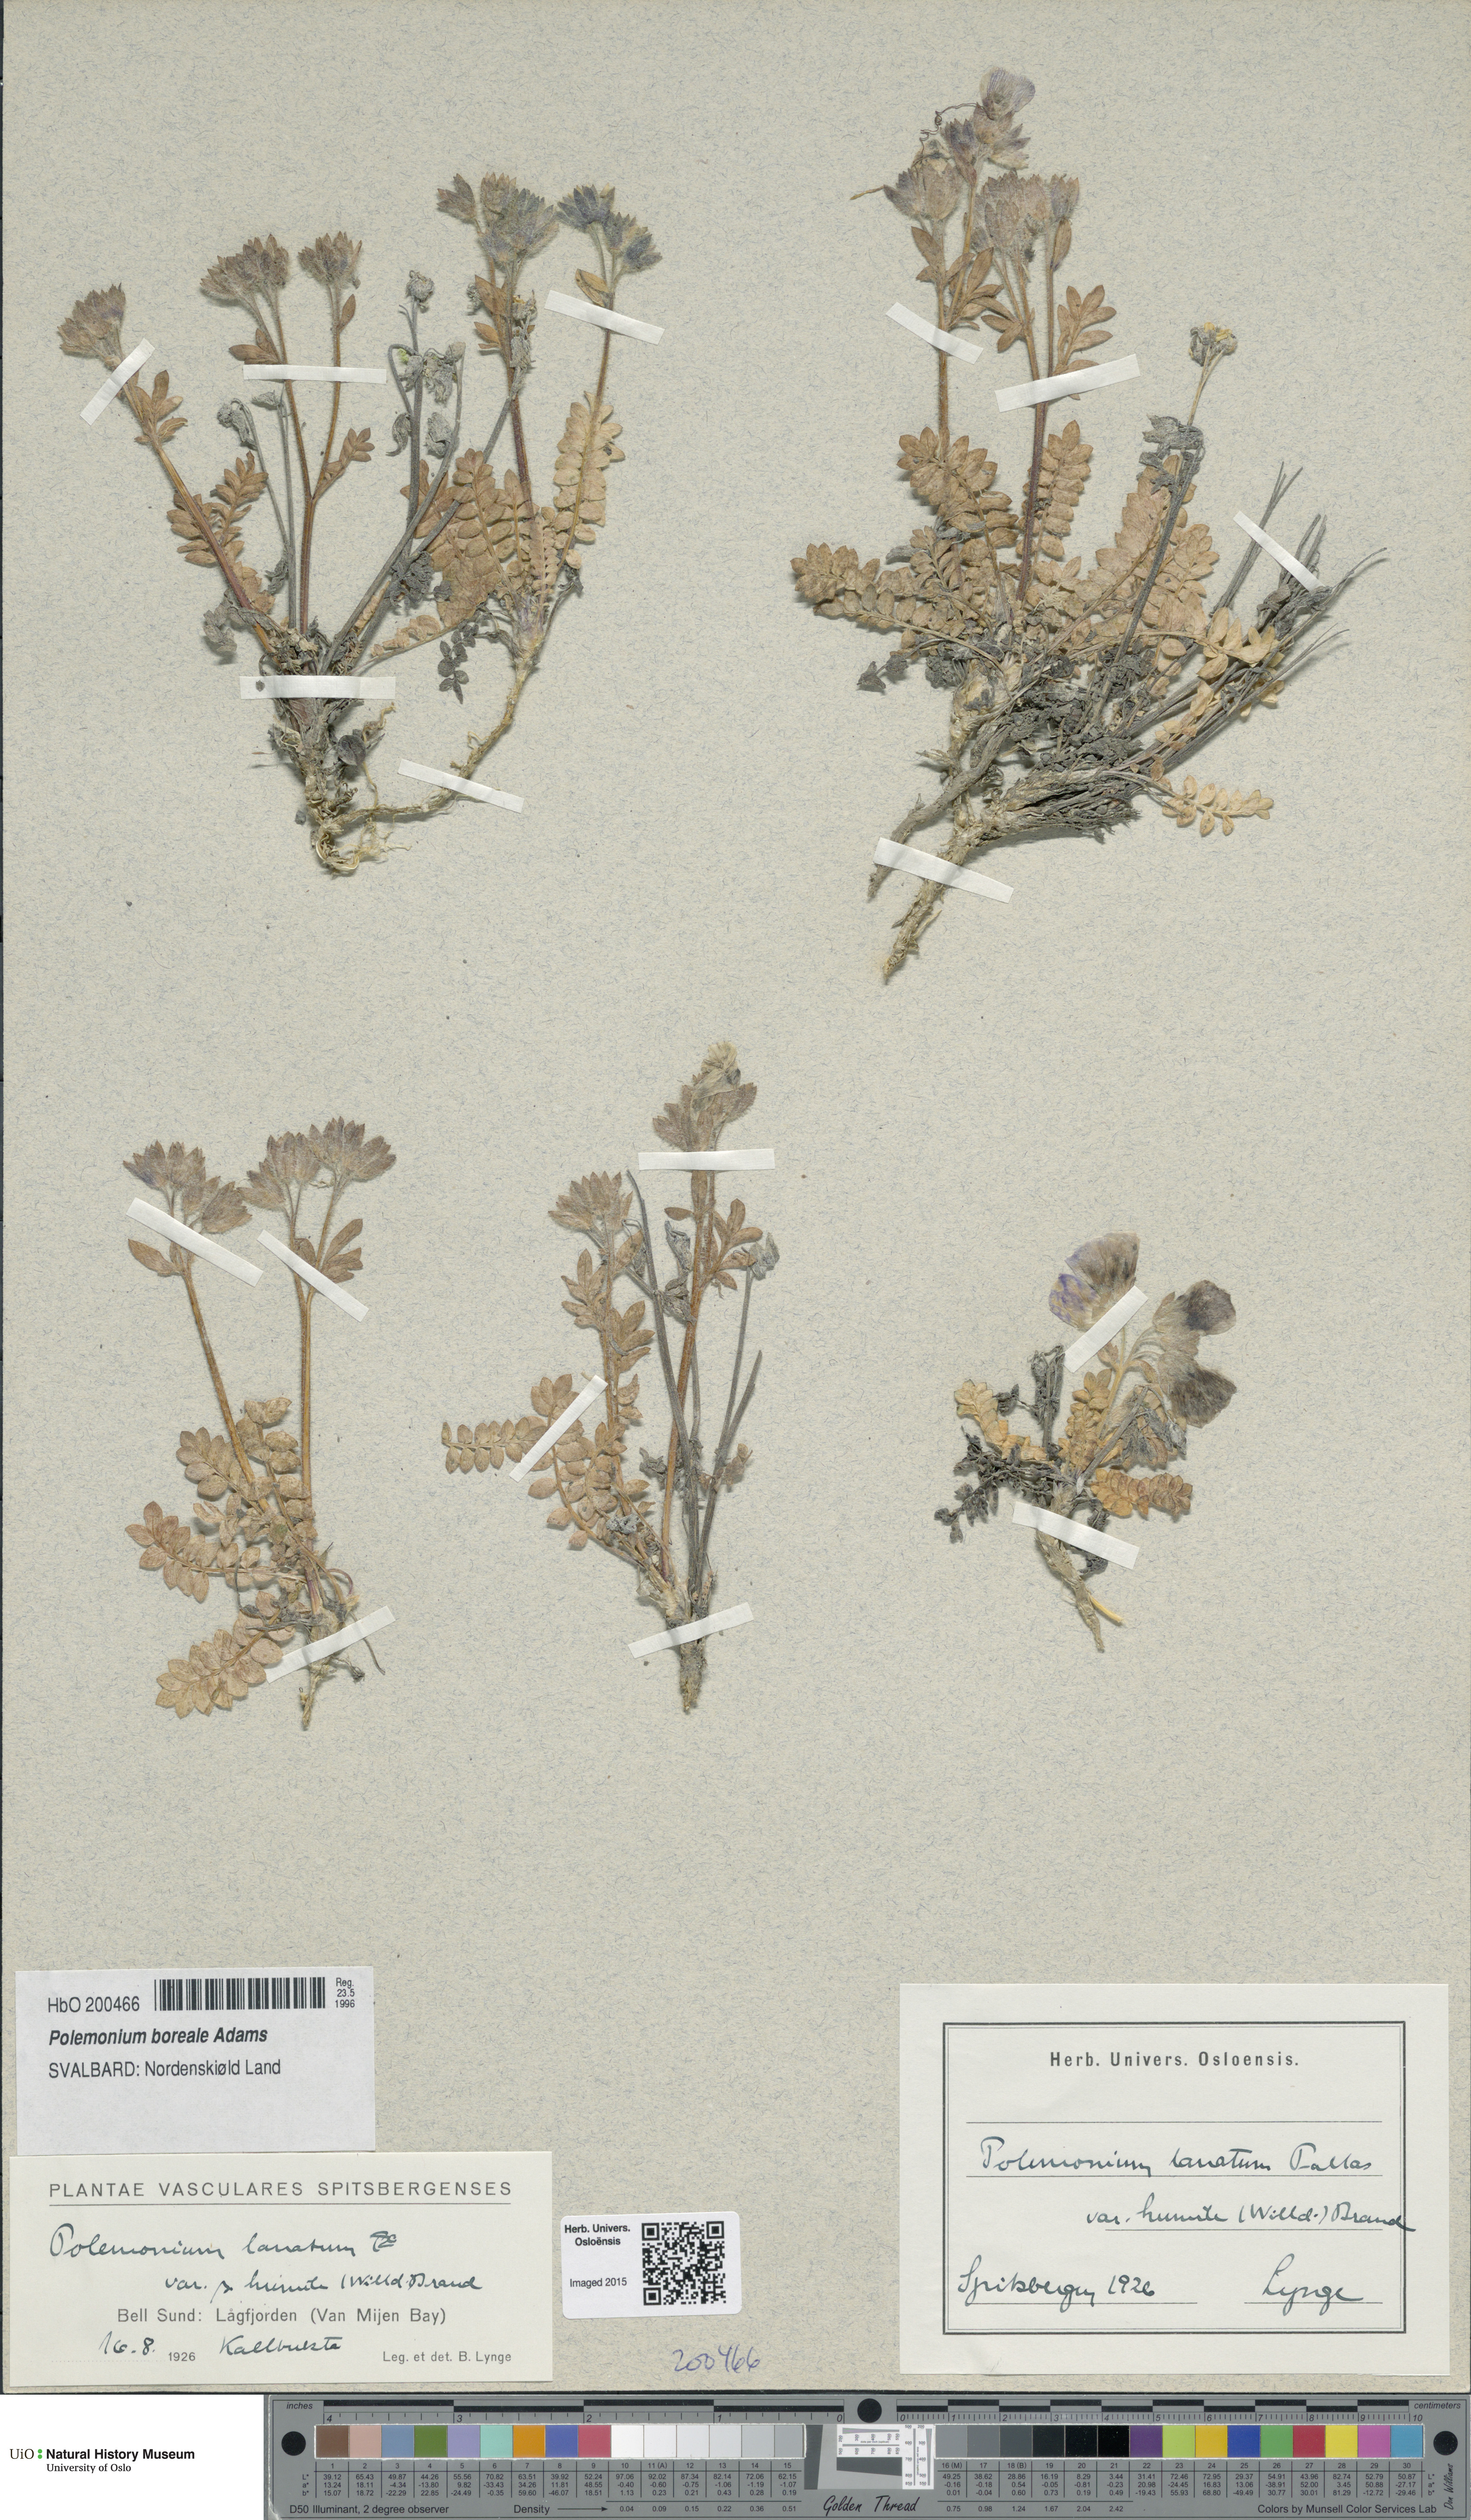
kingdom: Plantae
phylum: Tracheophyta
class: Magnoliopsida
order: Ericales
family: Polemoniaceae
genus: Polemonium
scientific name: Polemonium boreale
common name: Boreal jacob's-ladder
